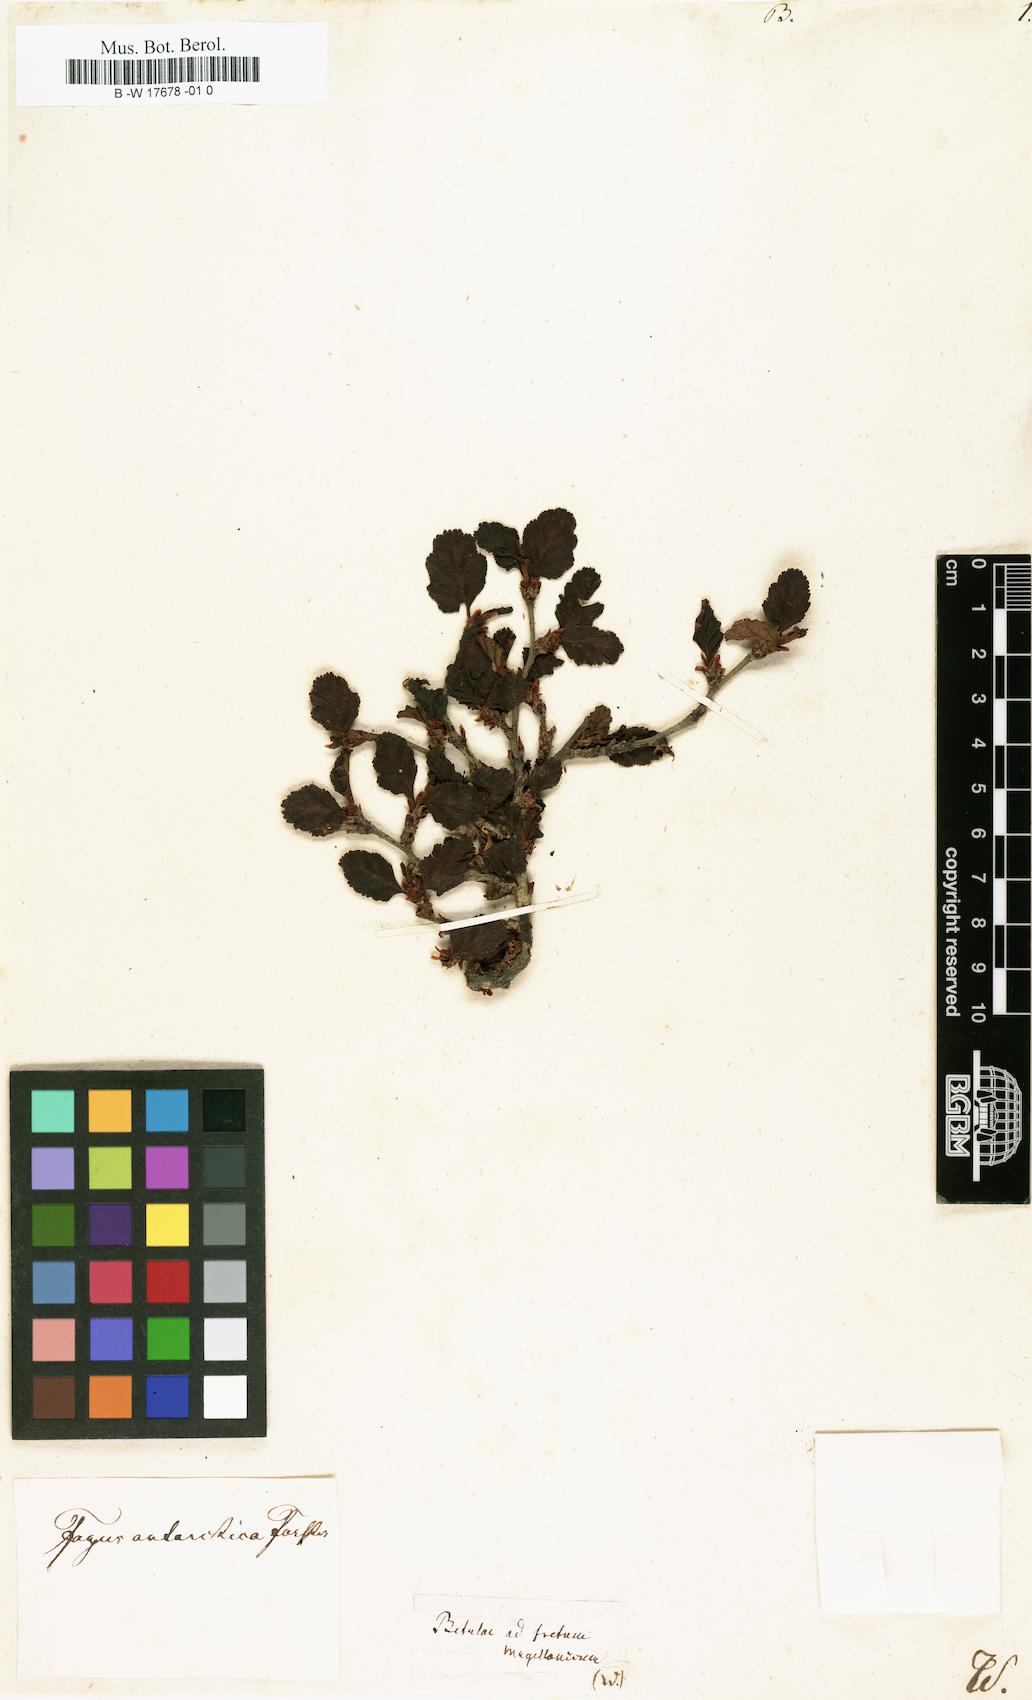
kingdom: Plantae
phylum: Tracheophyta
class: Magnoliopsida
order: Fagales
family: Betulaceae
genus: Betula
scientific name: Betula
